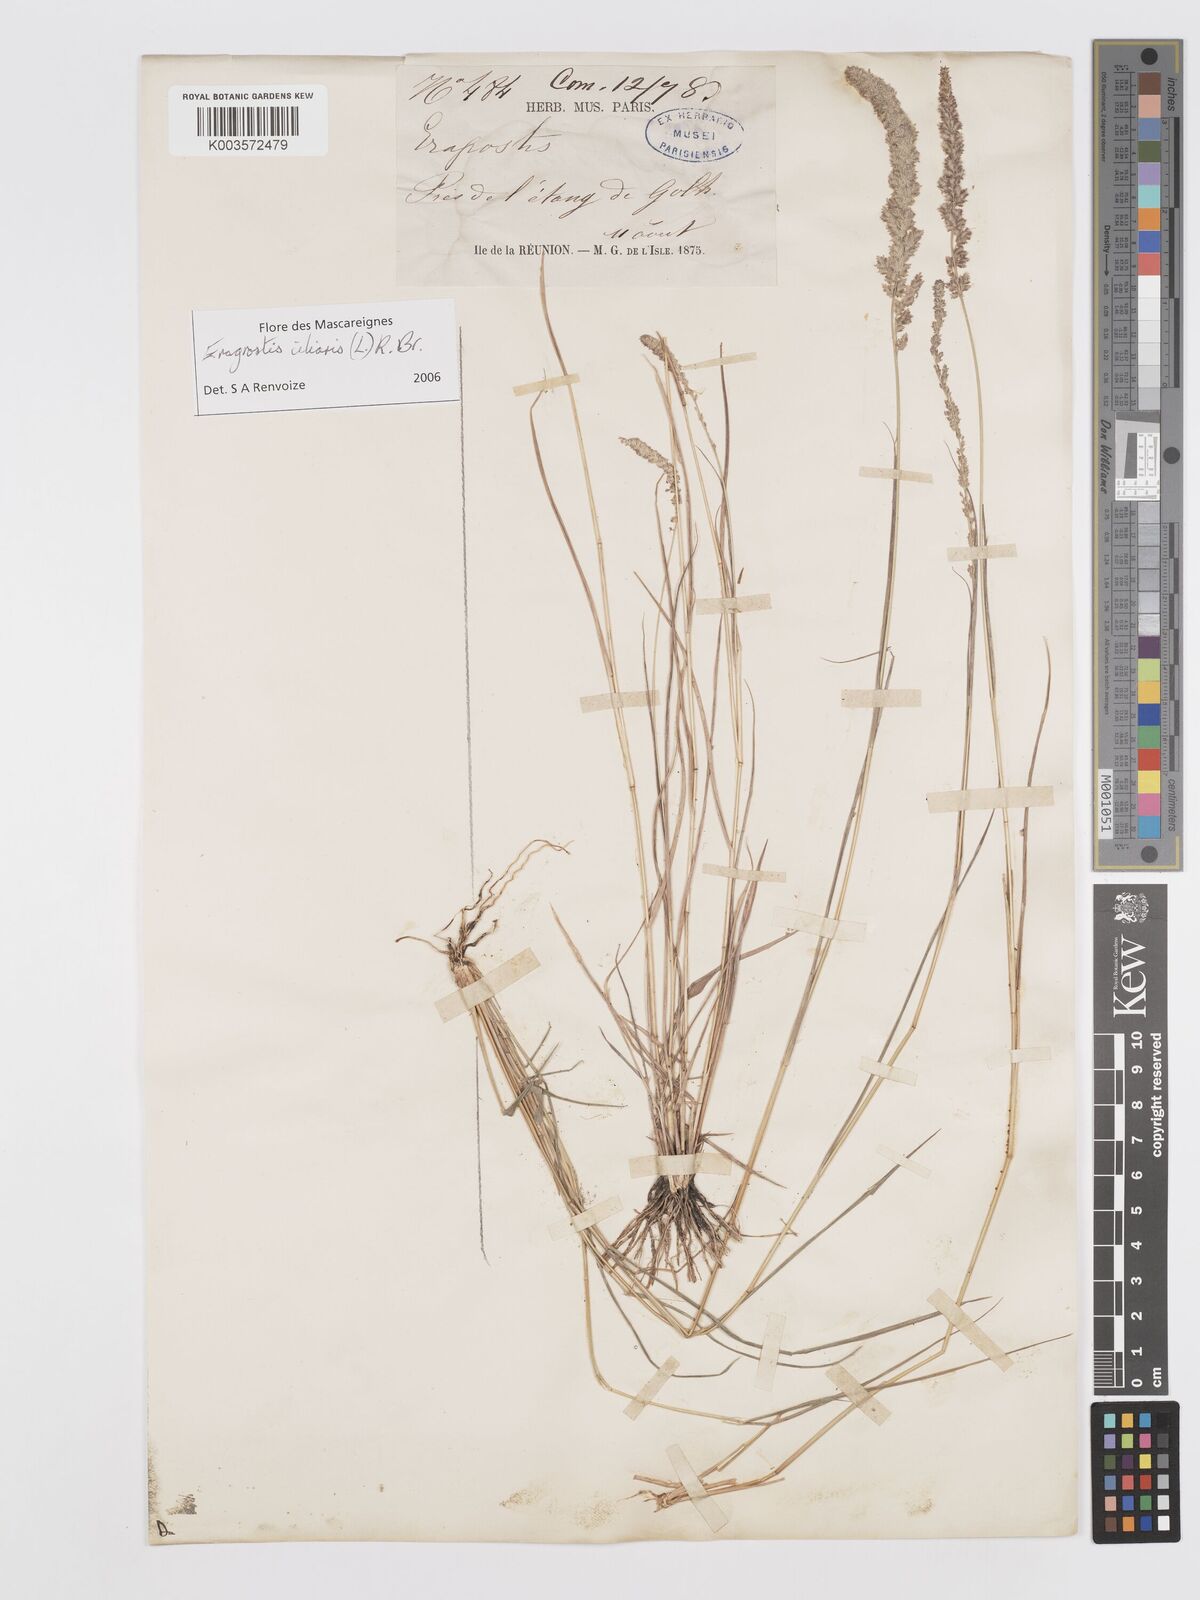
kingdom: Plantae
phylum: Tracheophyta
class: Liliopsida
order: Poales
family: Poaceae
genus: Eragrostis
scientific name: Eragrostis ciliaris
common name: Gophertail lovegrass
